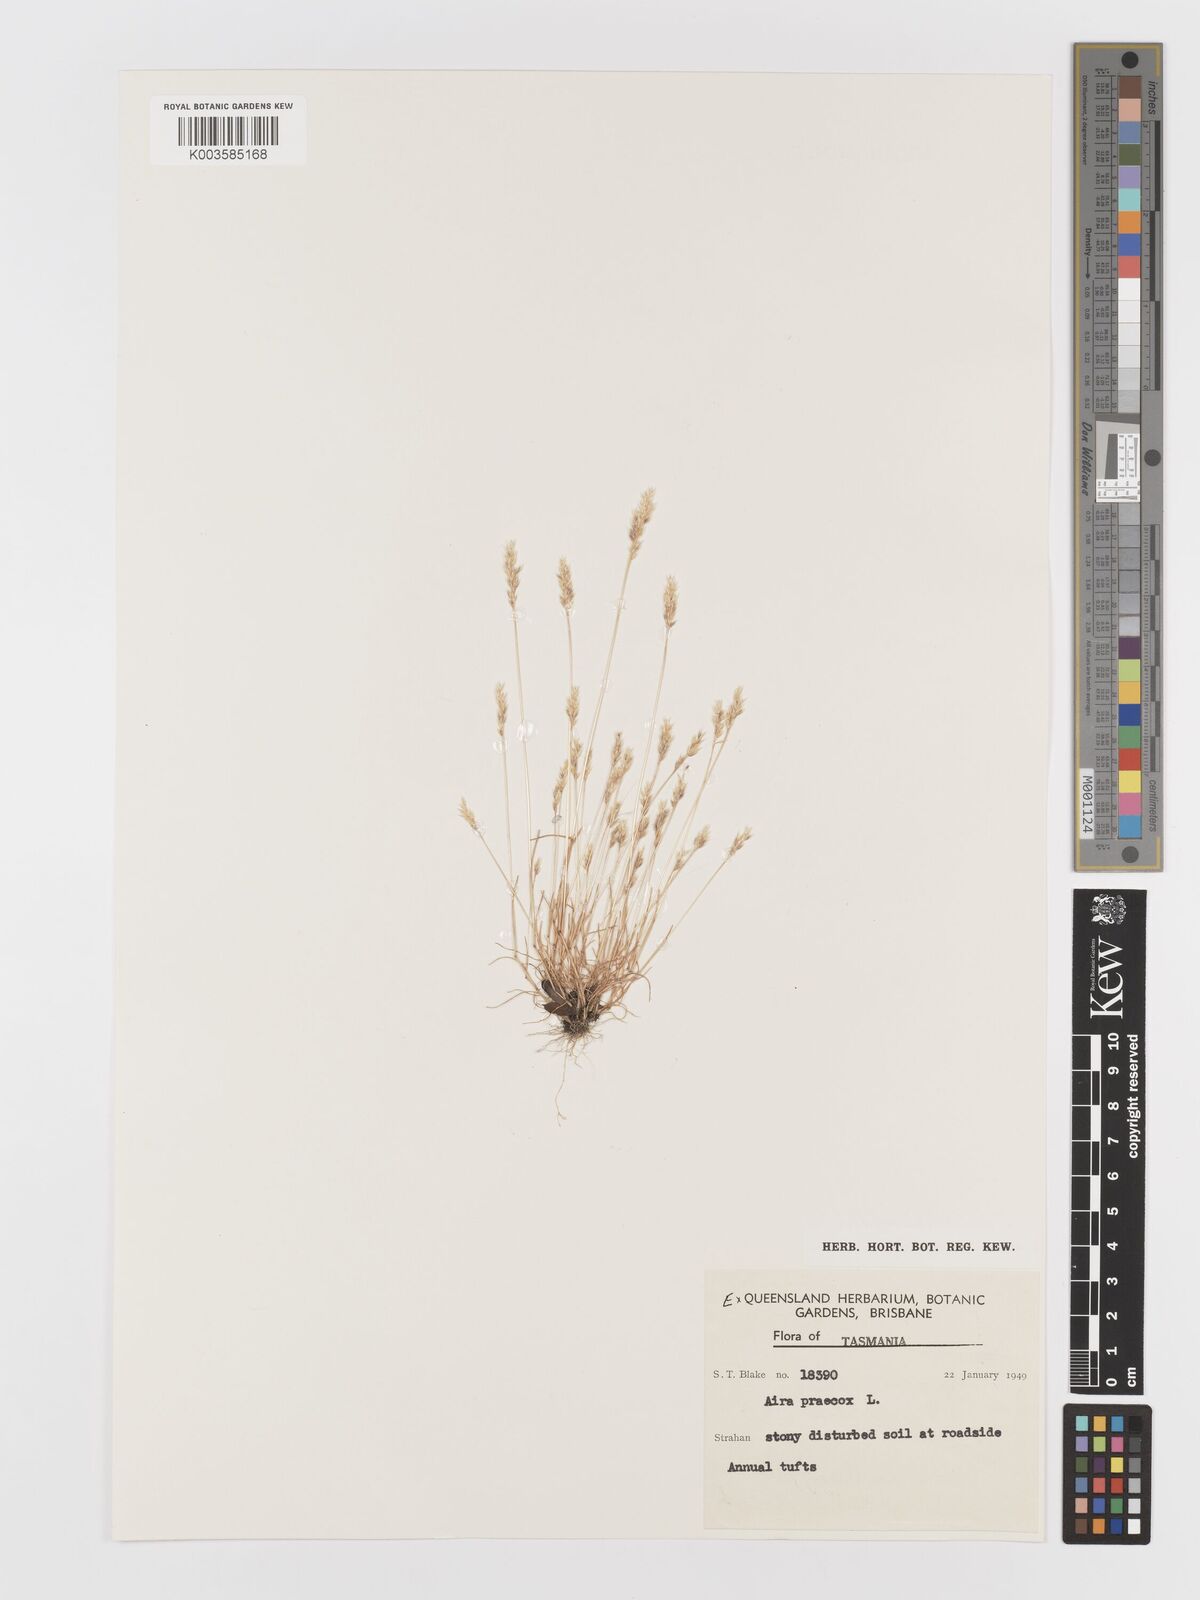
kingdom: Plantae
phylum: Tracheophyta
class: Liliopsida
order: Poales
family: Poaceae
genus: Aira
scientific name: Aira praecox
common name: Early hair-grass
